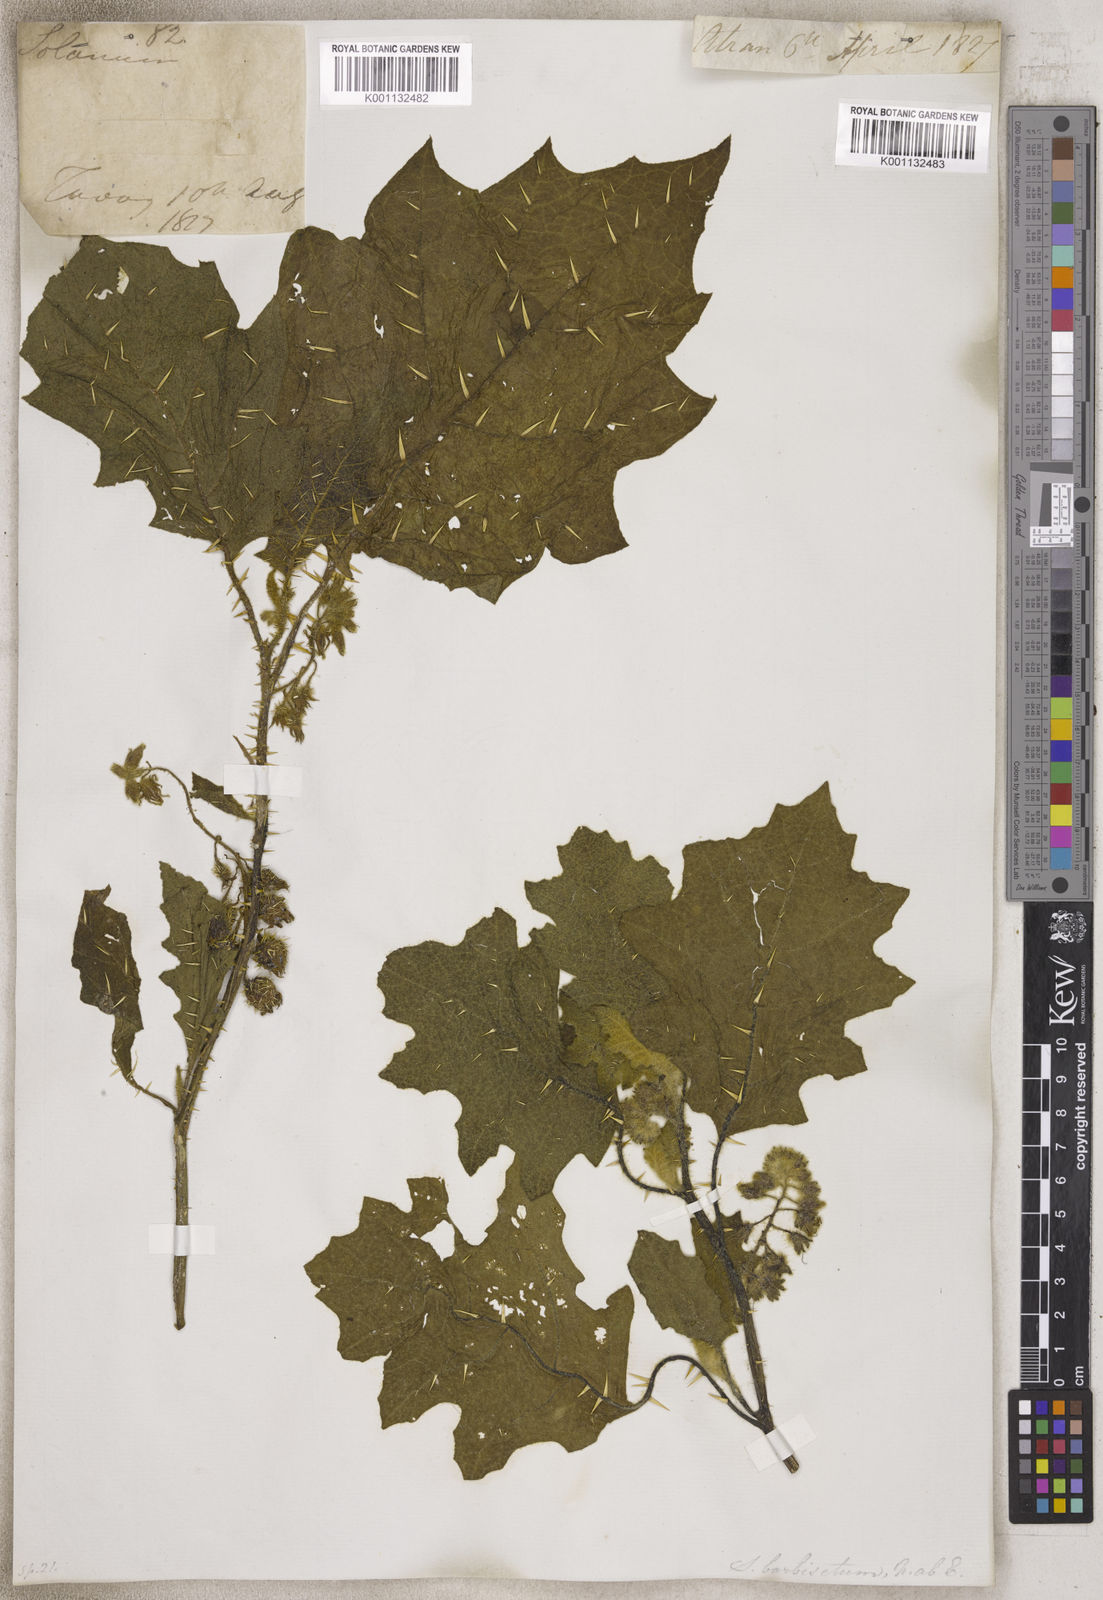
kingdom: Plantae
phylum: Tracheophyta
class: Magnoliopsida
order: Solanales
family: Solanaceae
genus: Solanum
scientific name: Solanum
